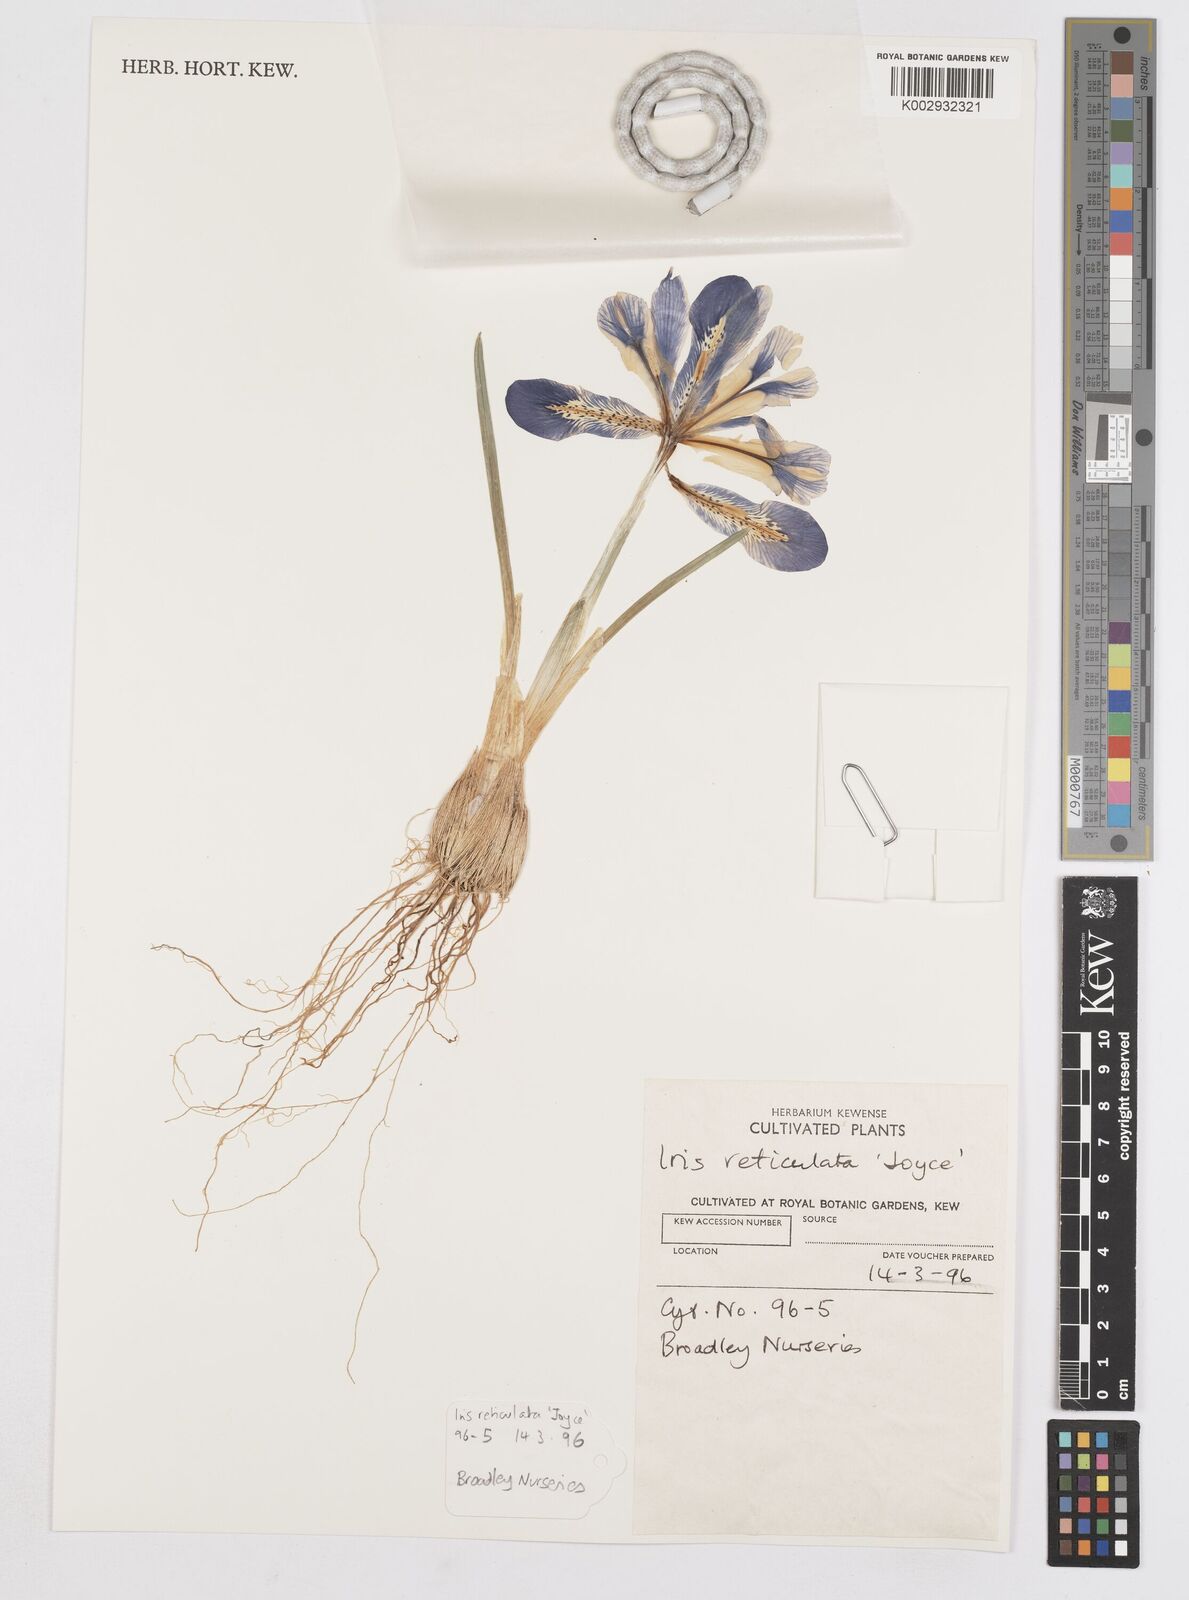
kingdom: Plantae
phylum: Tracheophyta
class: Liliopsida
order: Asparagales
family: Iridaceae
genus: Iris
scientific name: Iris reticulata
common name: Netted iris
